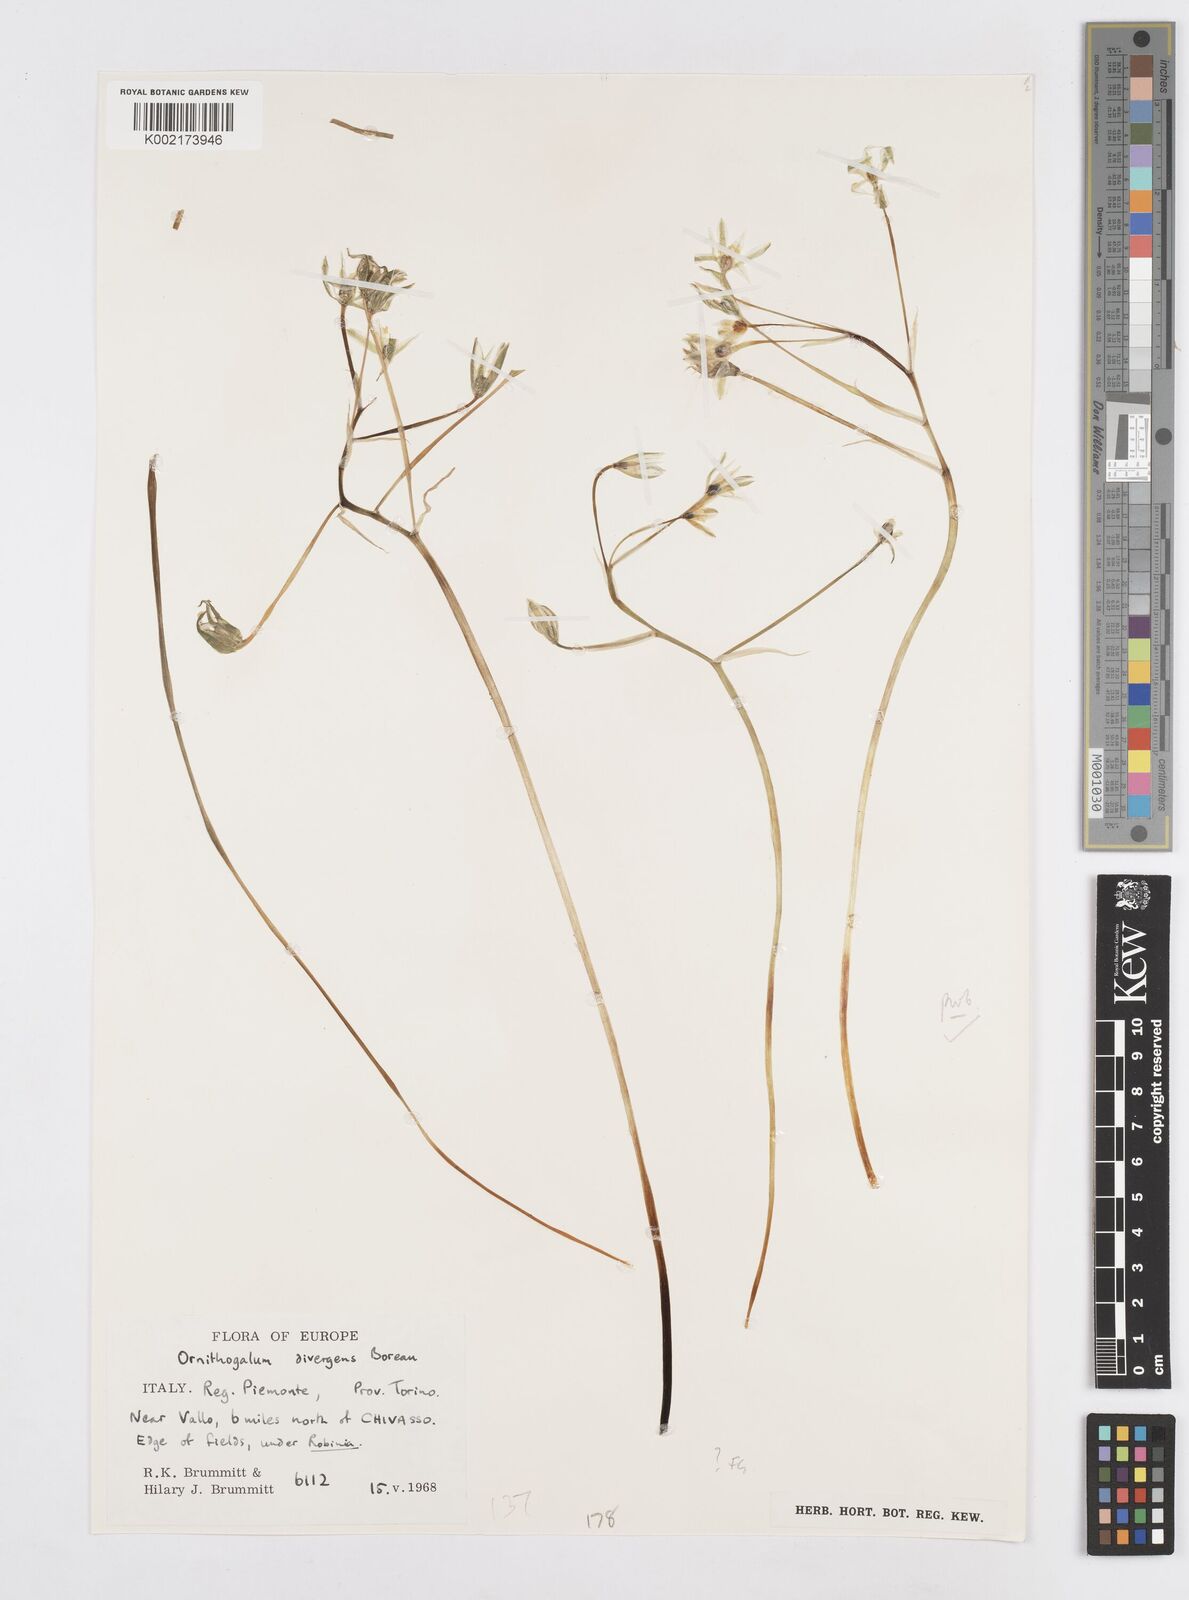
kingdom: Plantae
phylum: Tracheophyta
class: Liliopsida
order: Asparagales
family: Asparagaceae
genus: Ornithogalum
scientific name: Ornithogalum divergens
